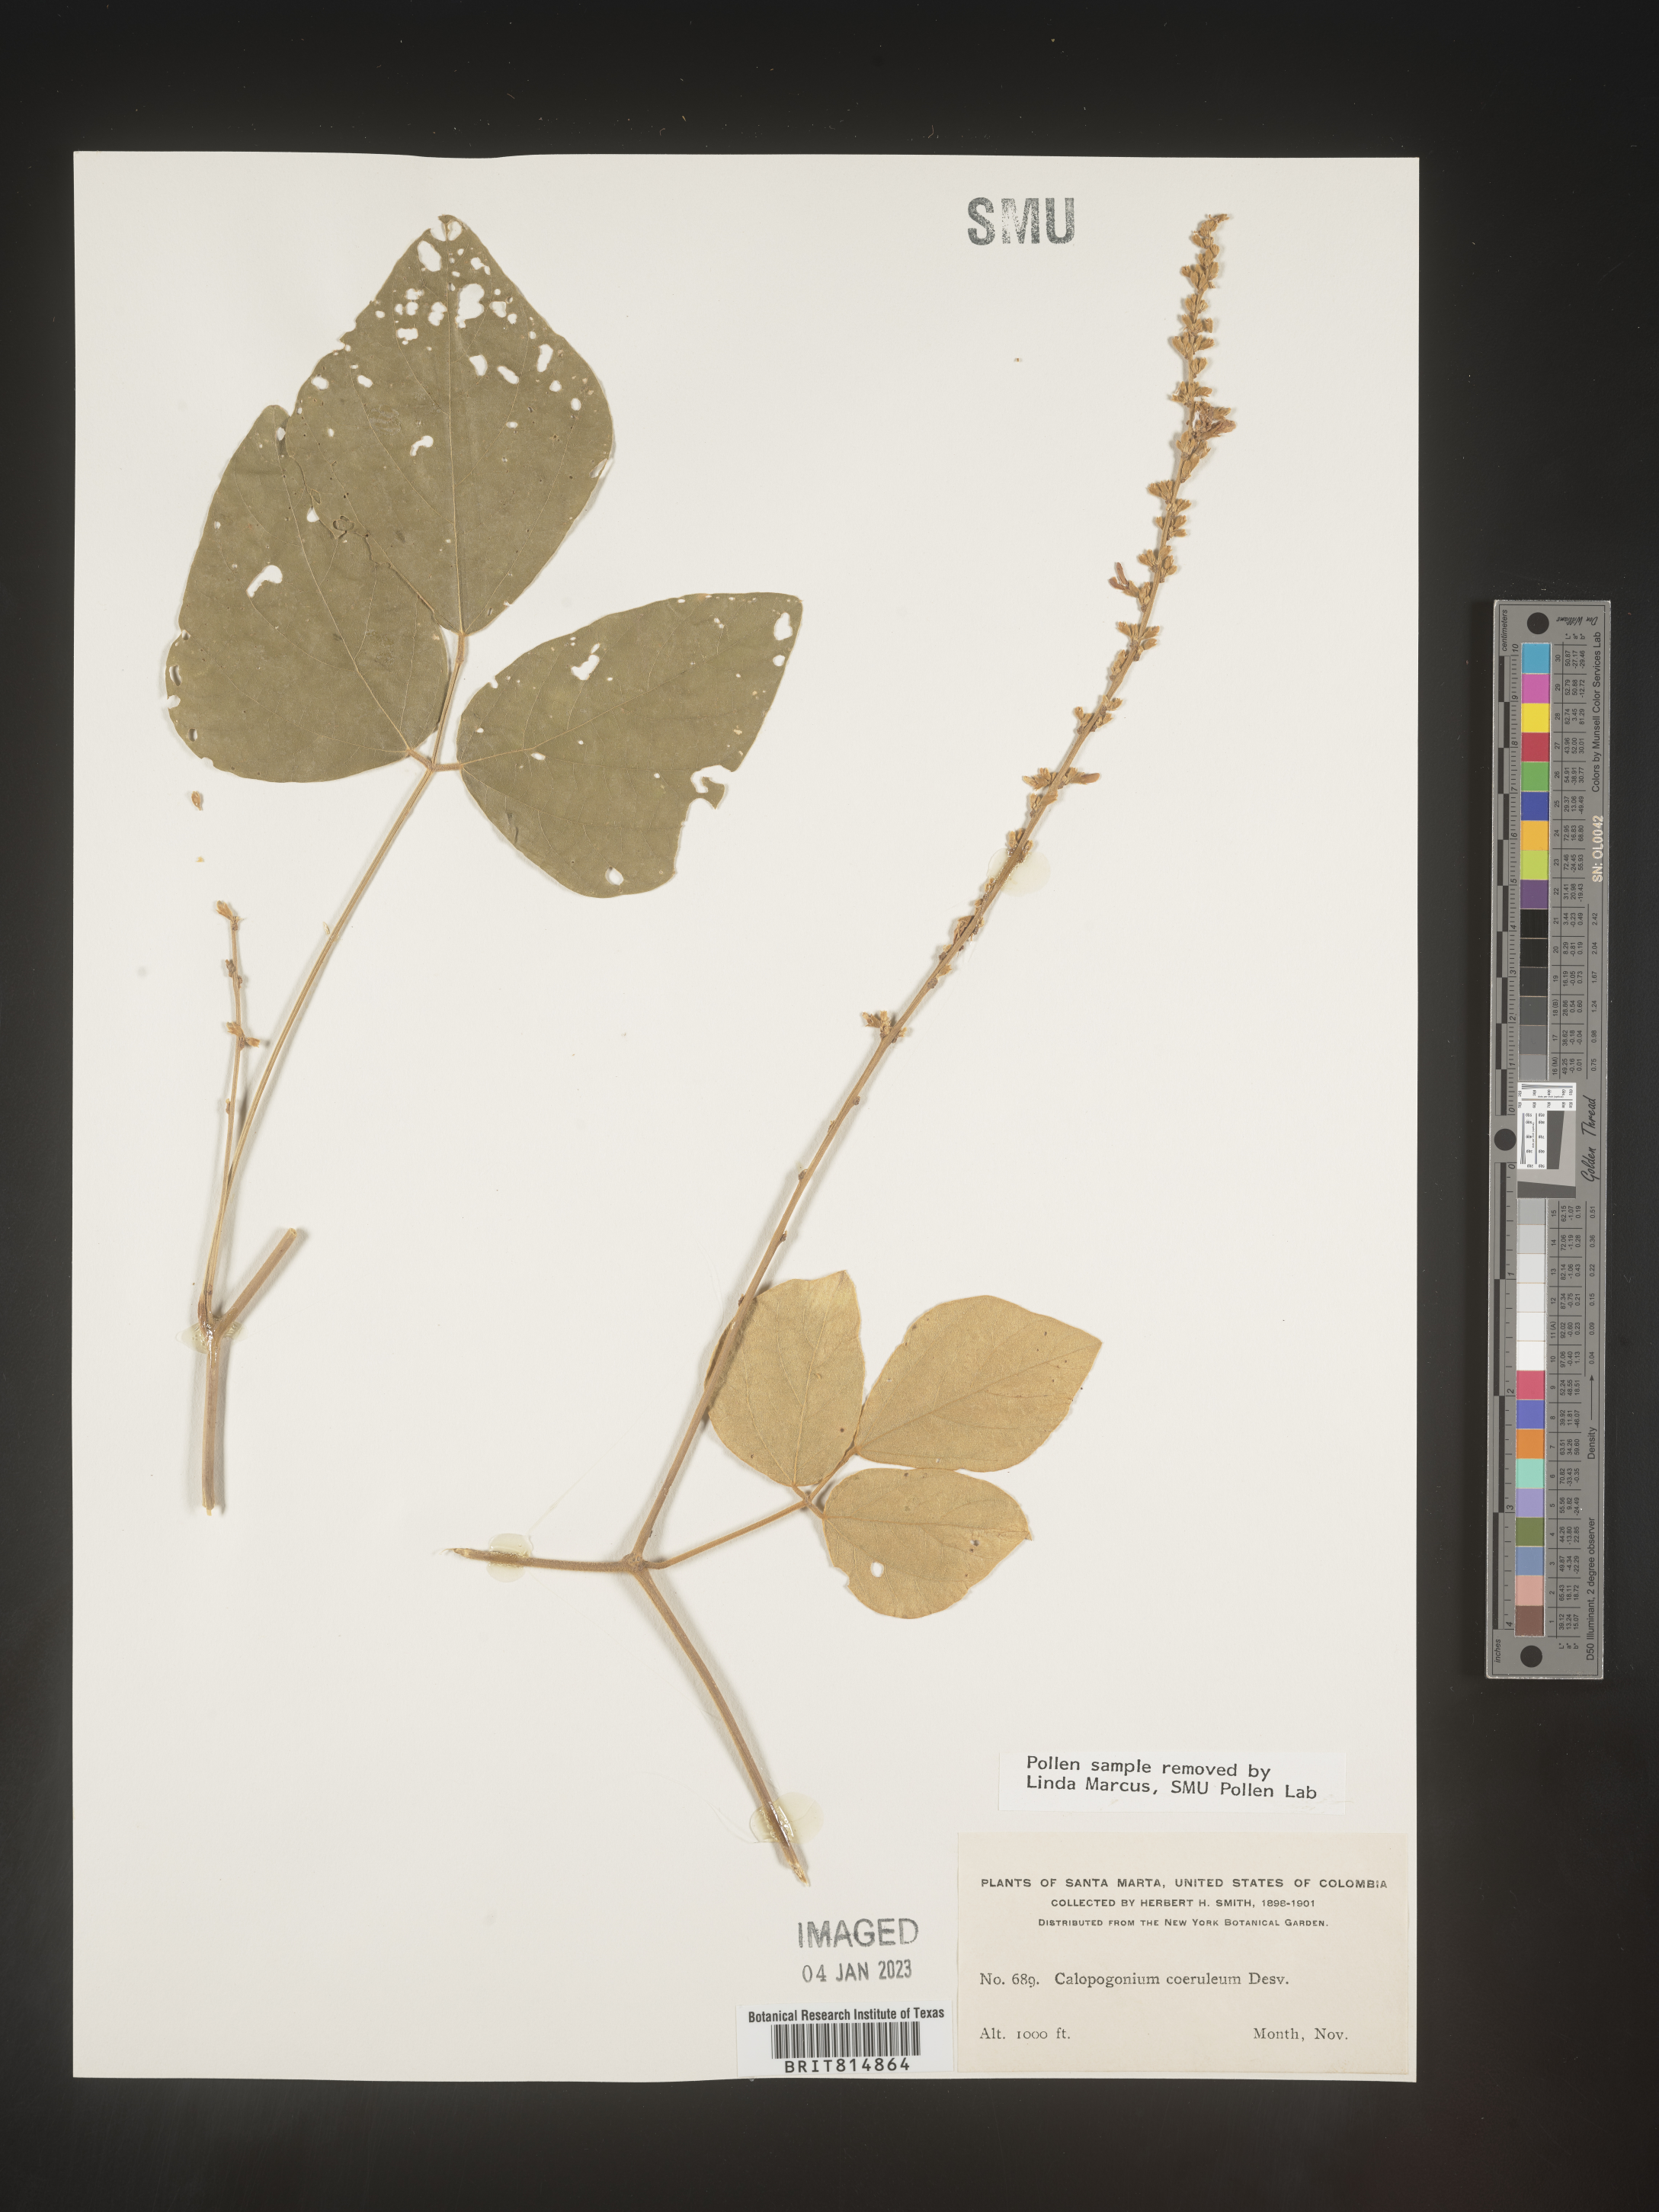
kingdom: Plantae
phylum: Tracheophyta
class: Magnoliopsida
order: Fabales
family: Fabaceae
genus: Calopogonium
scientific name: Calopogonium
